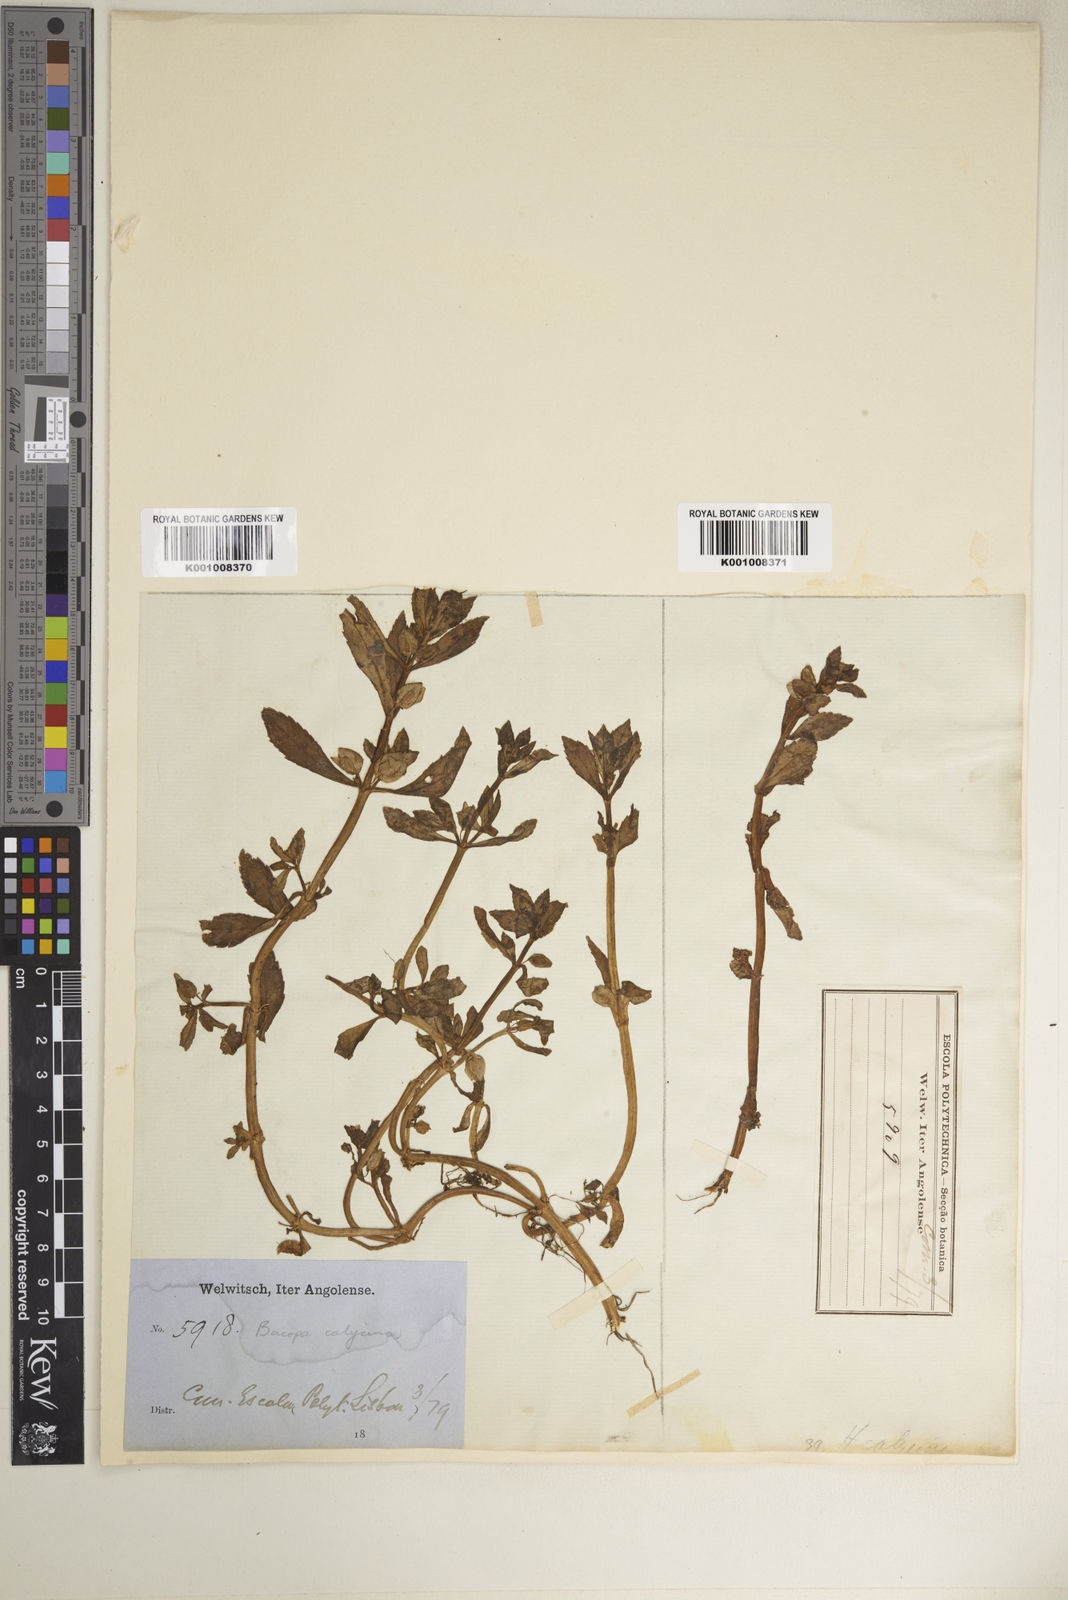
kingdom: Plantae
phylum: Tracheophyta
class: Magnoliopsida
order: Lamiales
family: Plantaginaceae
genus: Bacopa
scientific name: Bacopa crenata
